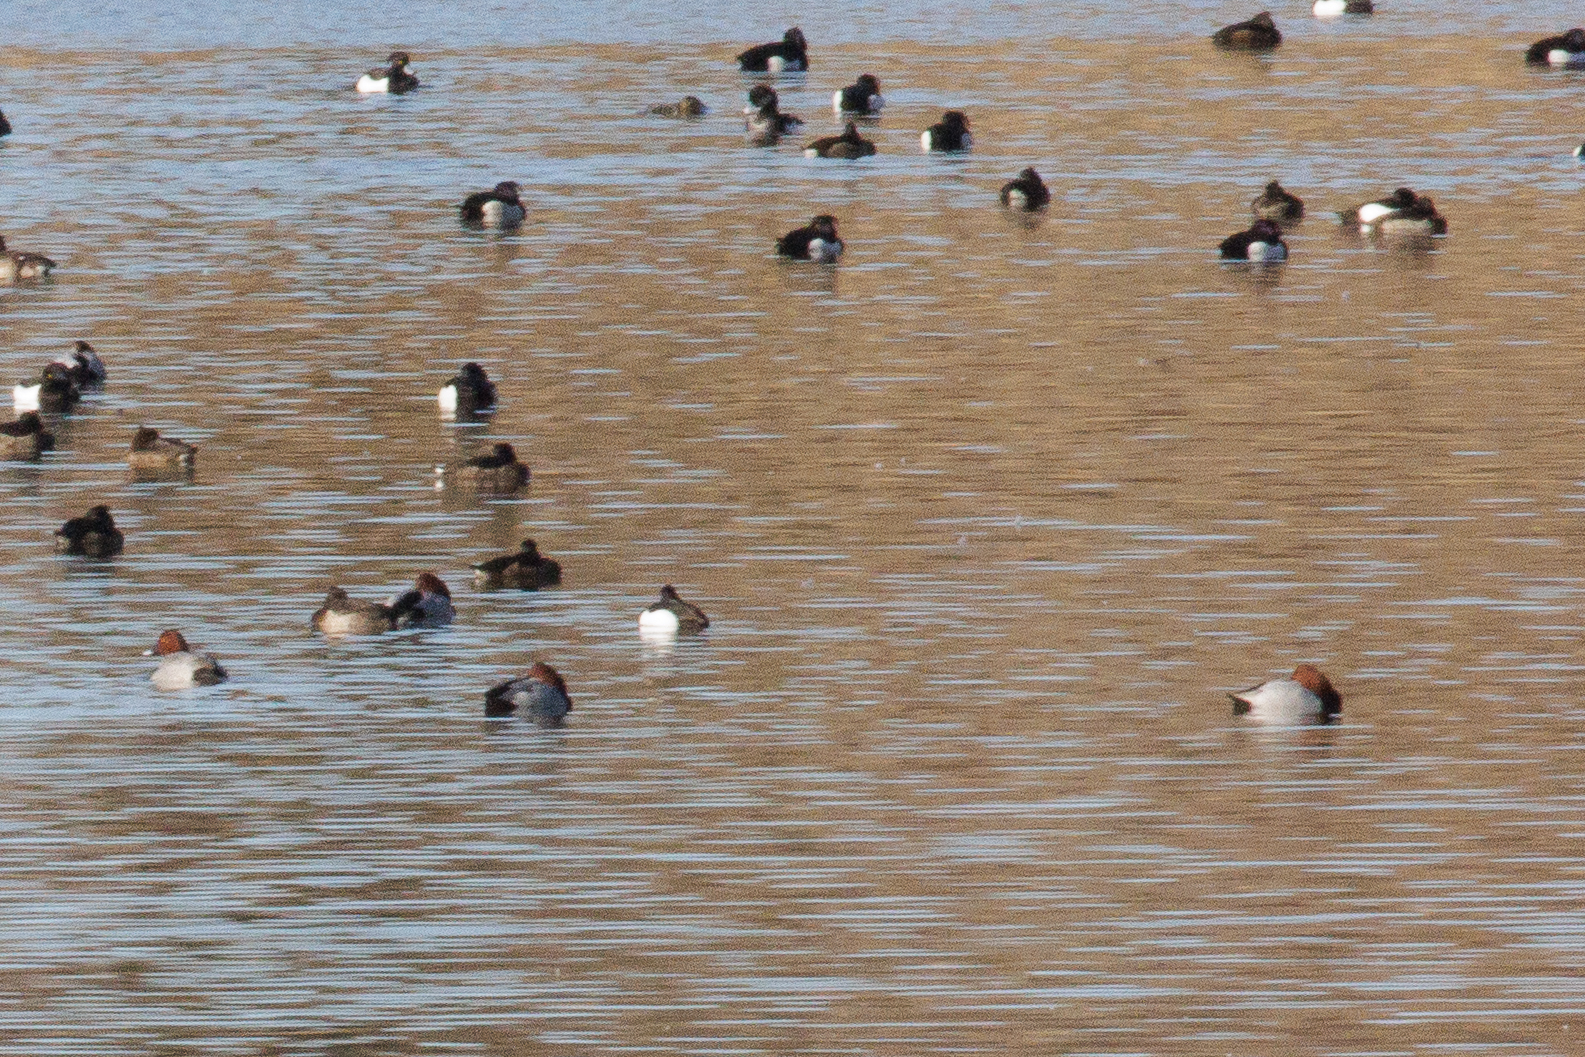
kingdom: Animalia
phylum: Chordata
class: Aves
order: Anseriformes
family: Anatidae
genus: Aythya
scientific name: Aythya ferina
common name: Taffeland
